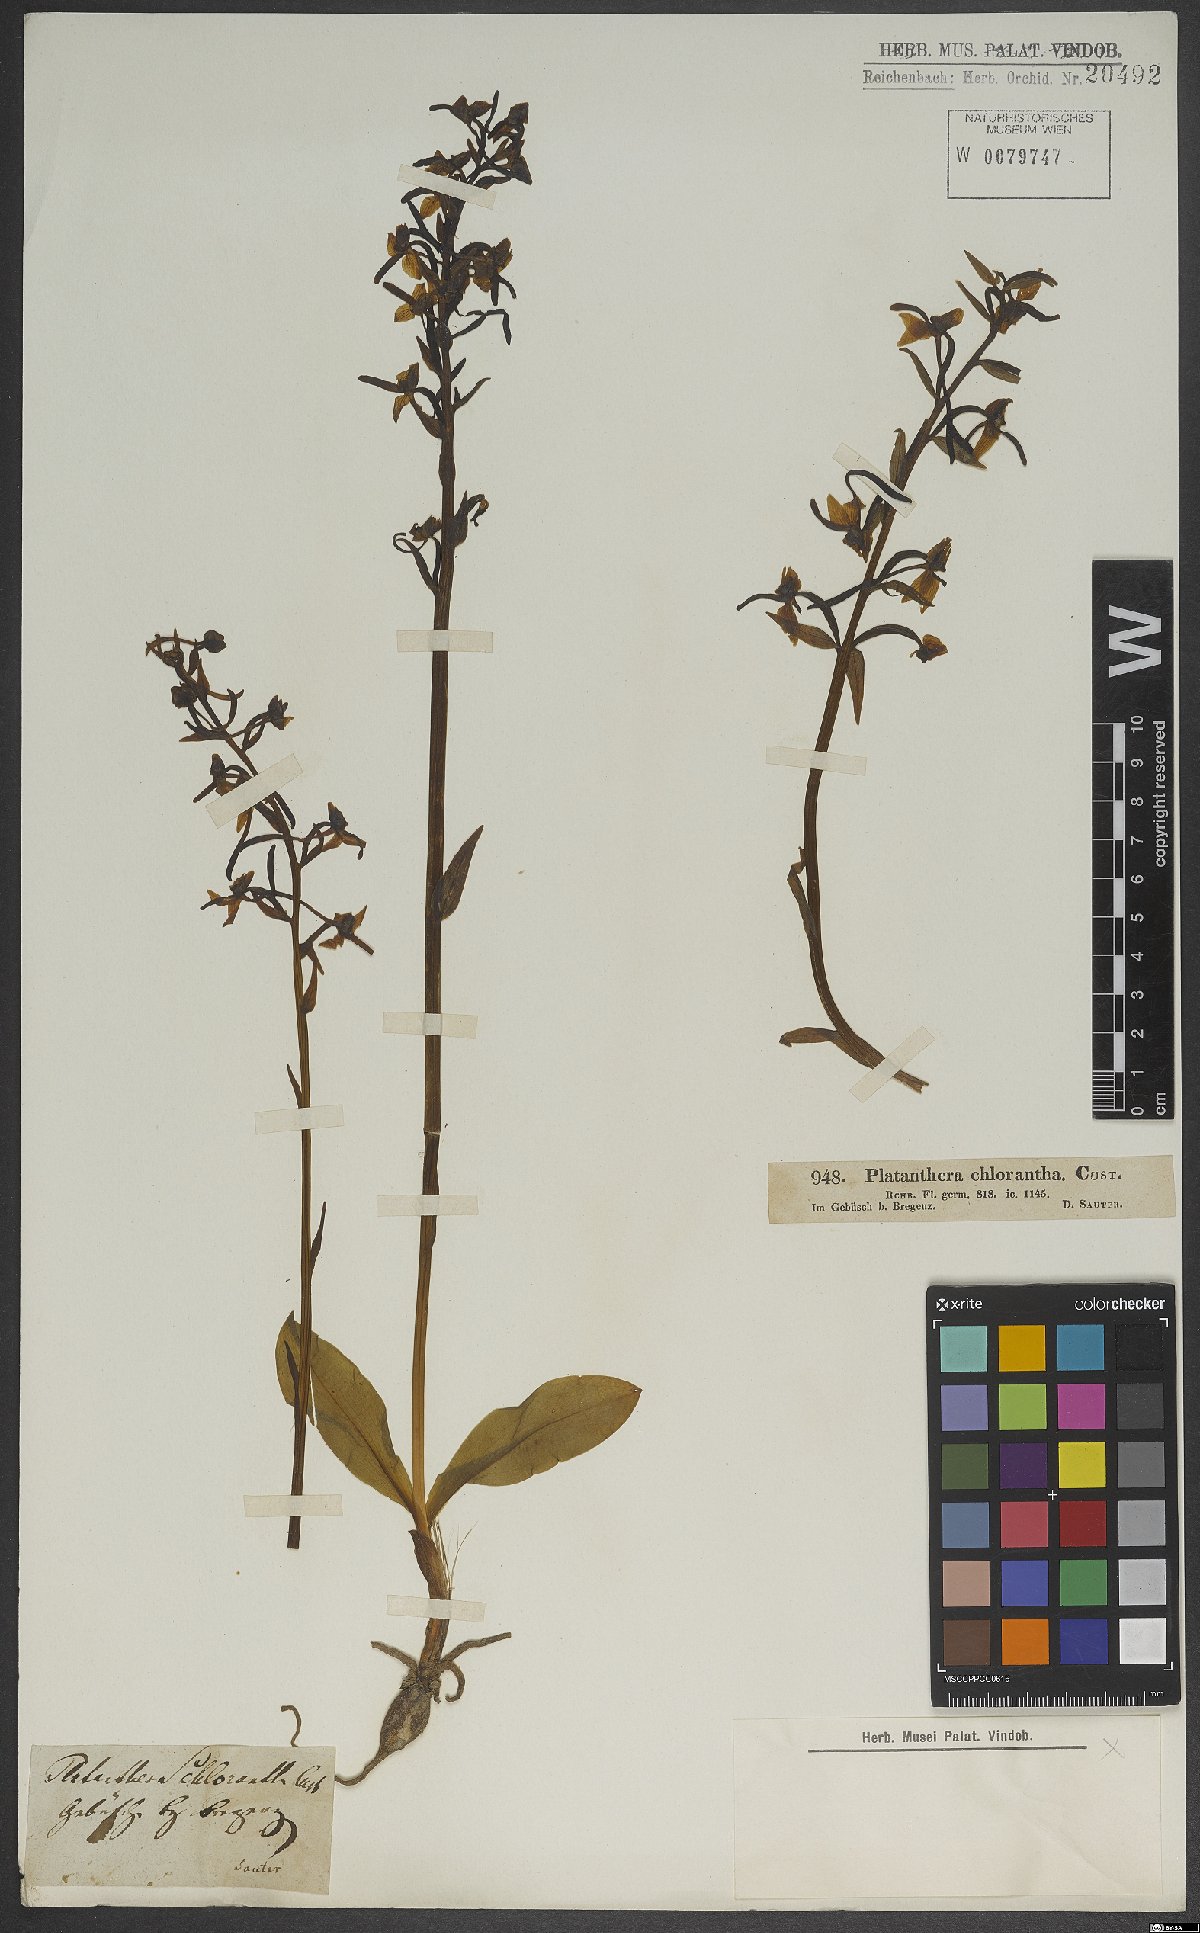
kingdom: Plantae
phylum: Tracheophyta
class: Liliopsida
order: Asparagales
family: Orchidaceae
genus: Platanthera
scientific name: Platanthera chlorantha
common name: Greater butterfly-orchid
